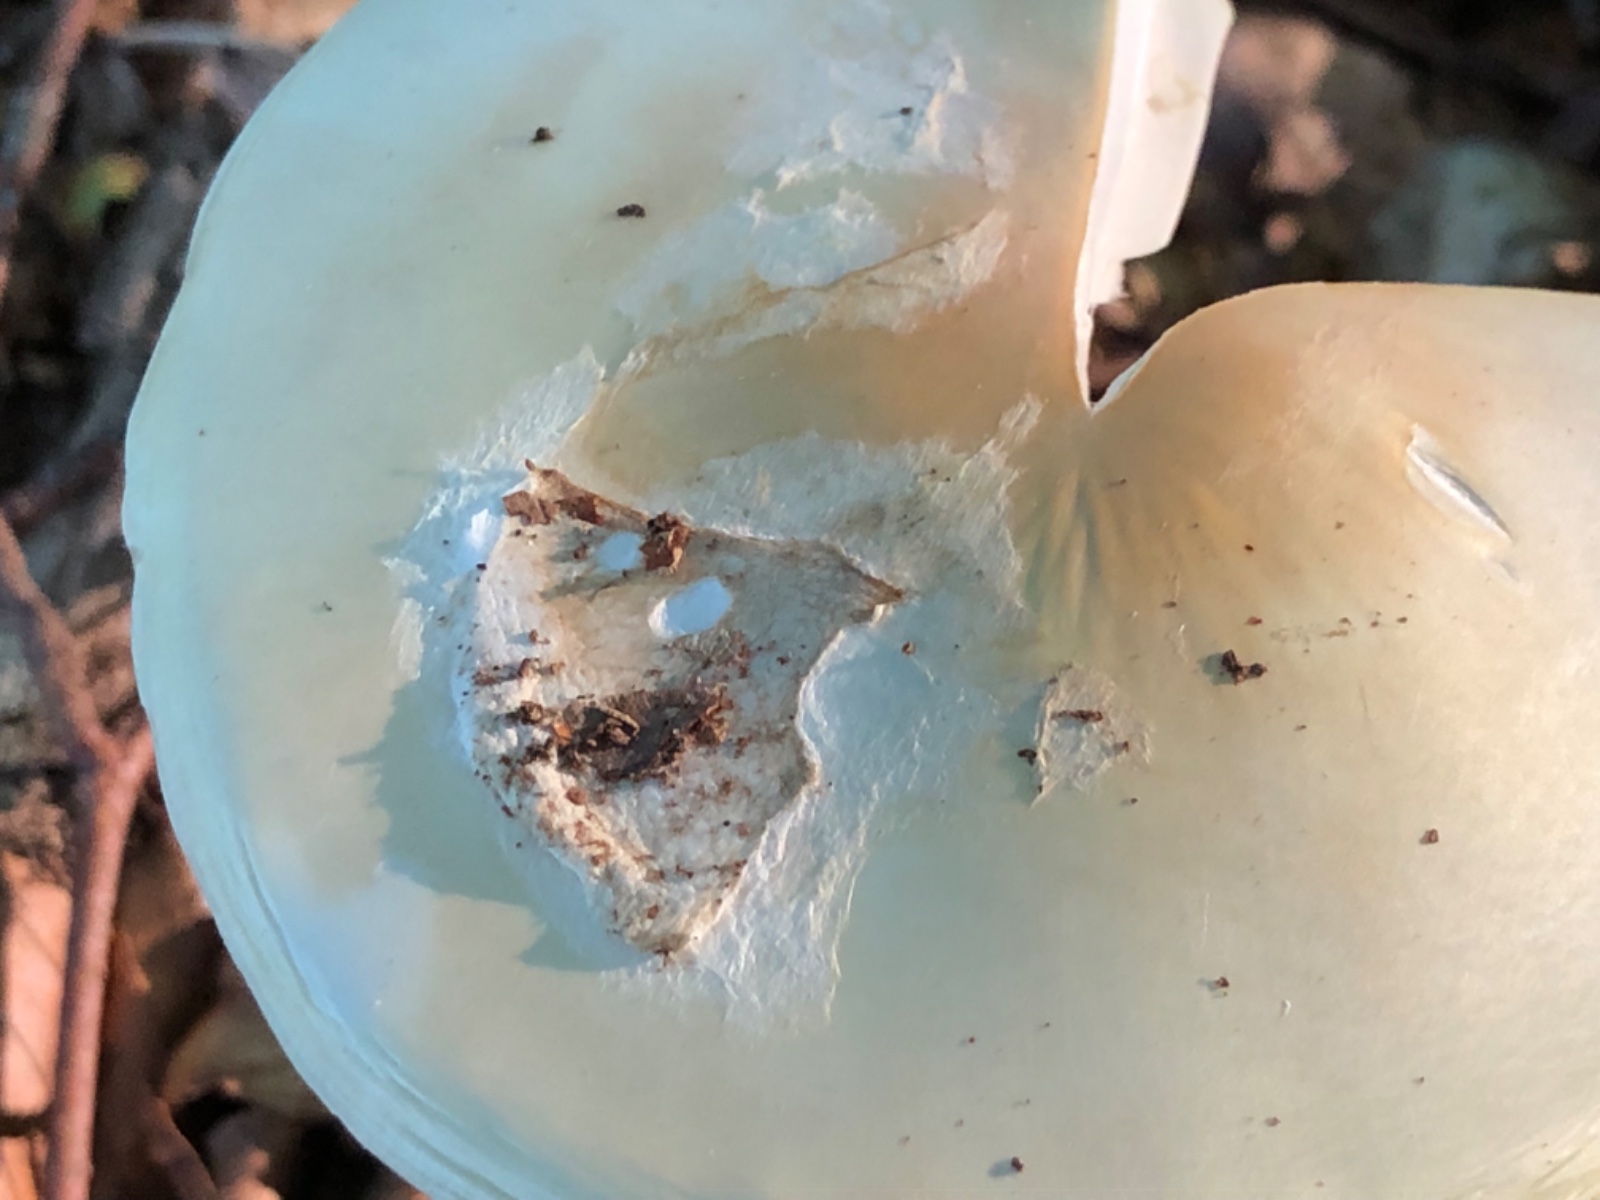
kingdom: Fungi
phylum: Basidiomycota
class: Agaricomycetes
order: Agaricales
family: Amanitaceae
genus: Amanita
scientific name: Amanita virosa
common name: snehvid fluesvamp
